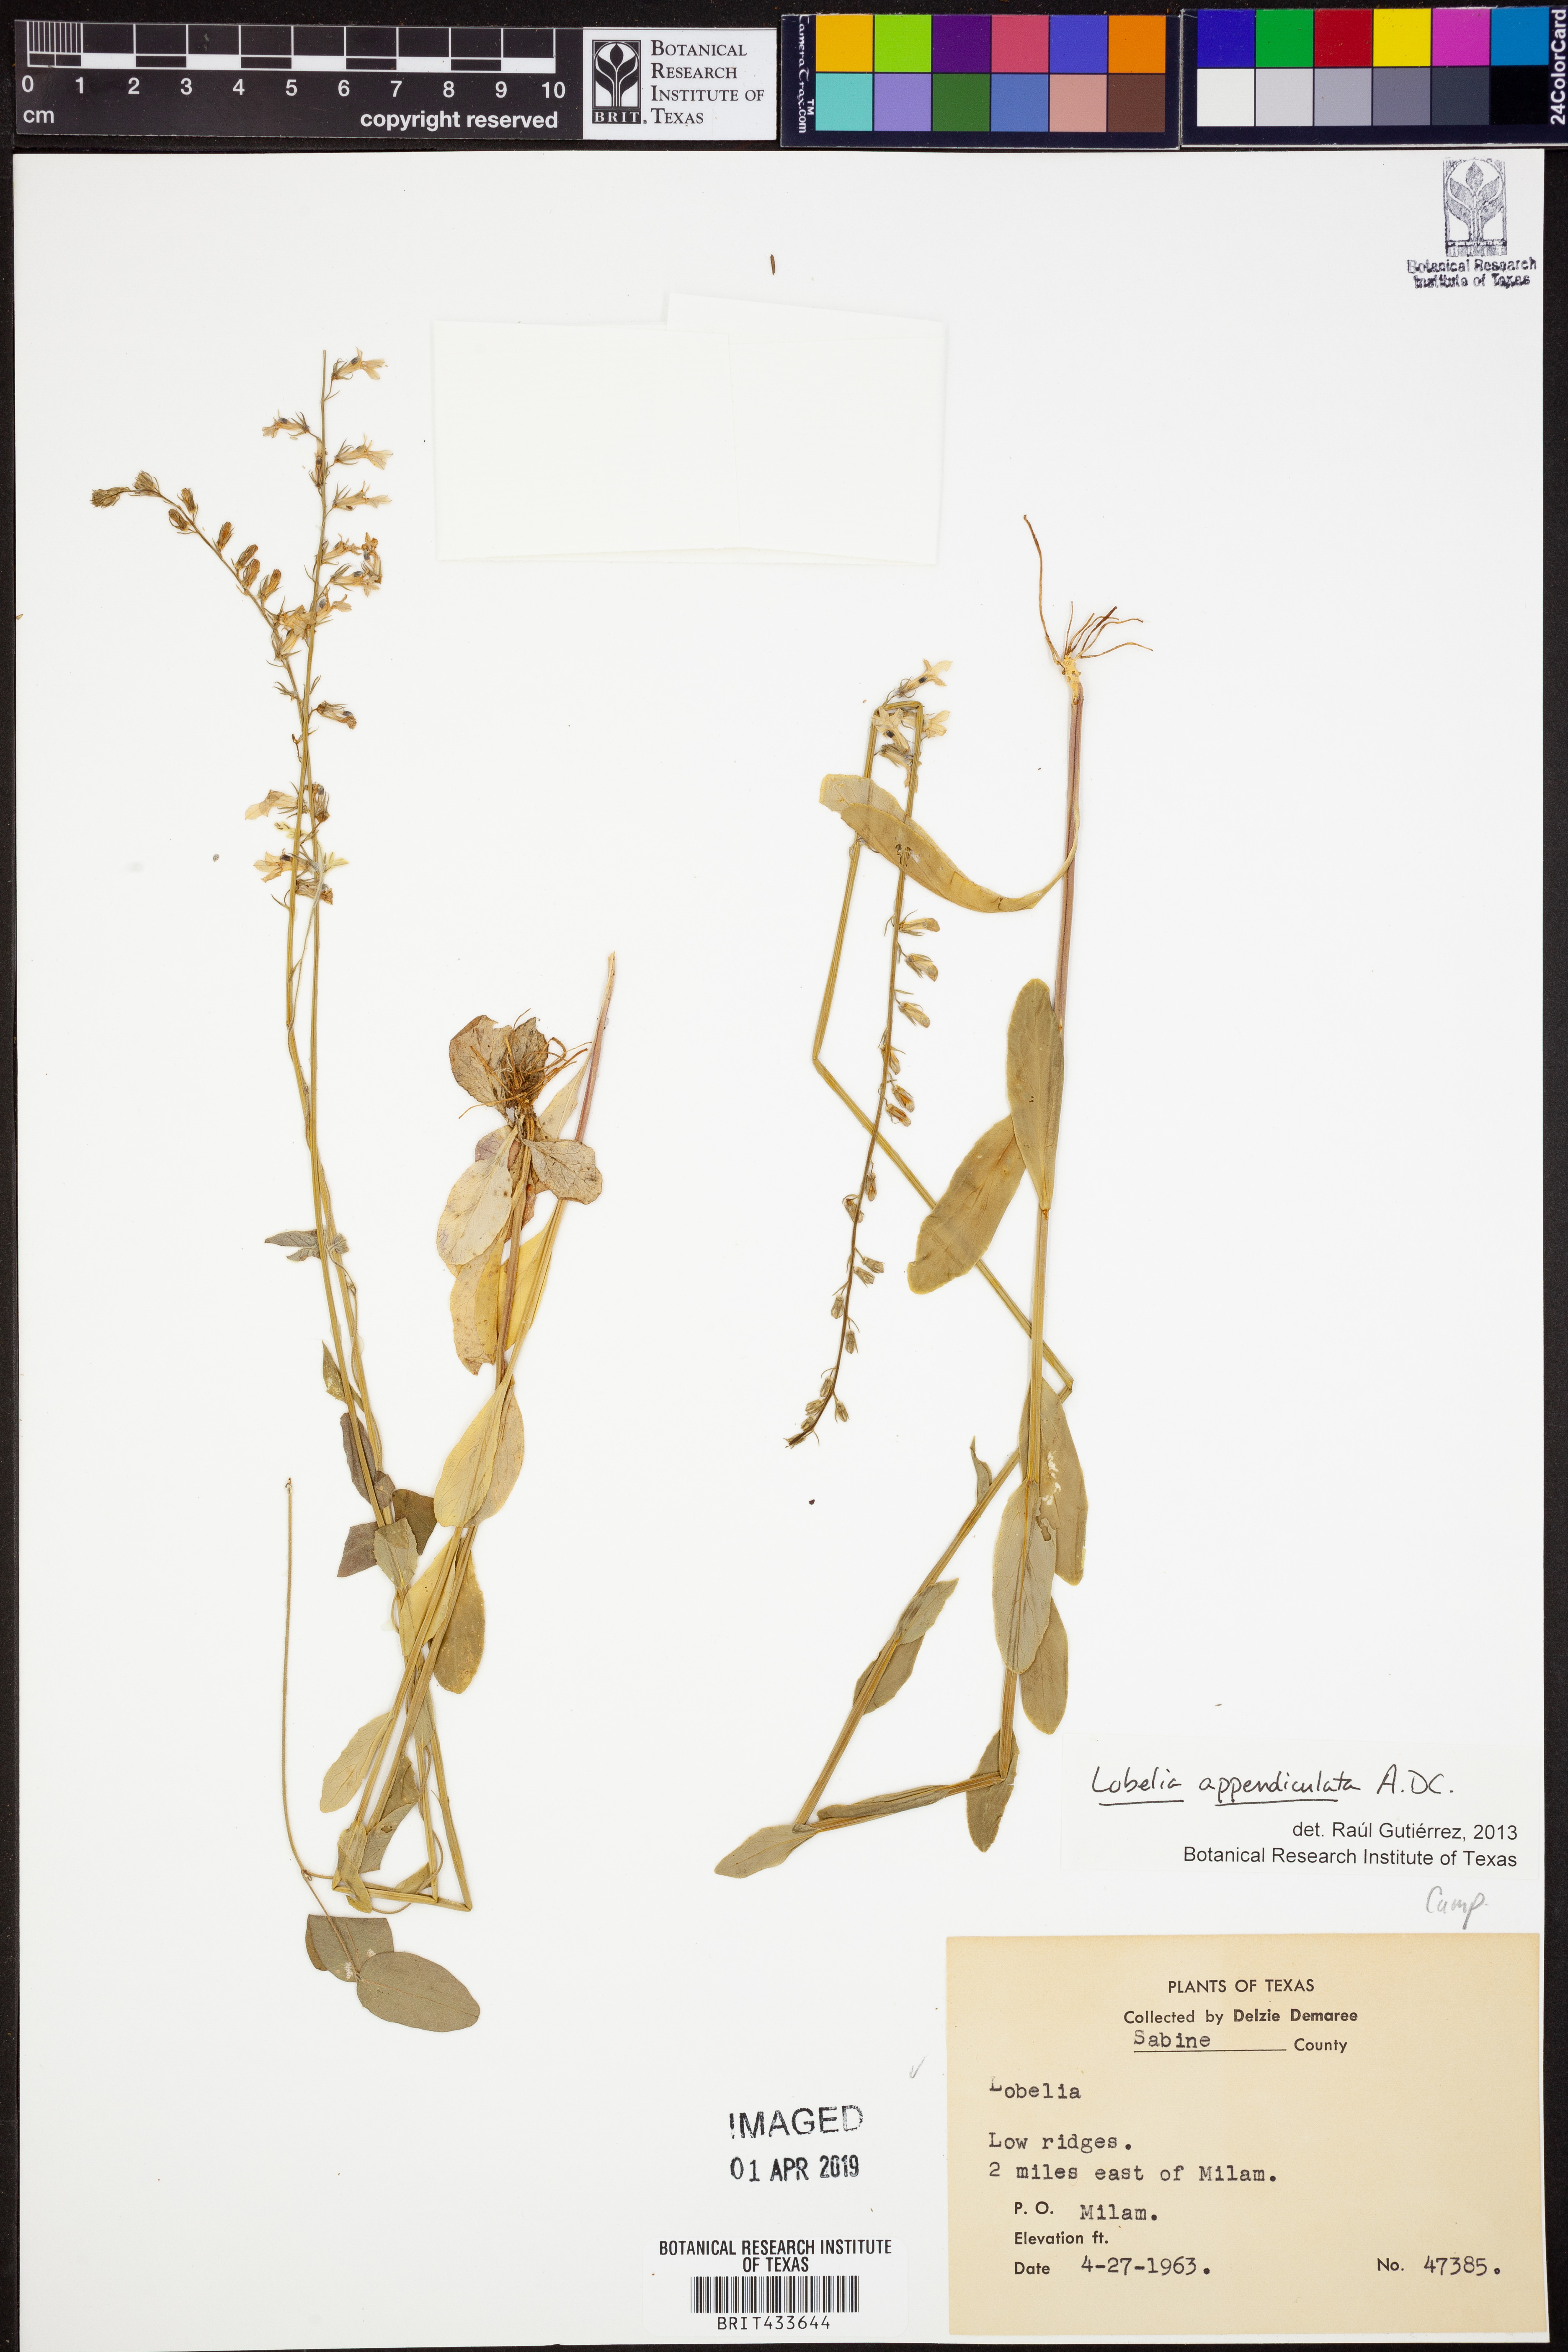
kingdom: Plantae
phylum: Tracheophyta
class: Magnoliopsida
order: Asterales
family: Campanulaceae
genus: Lobelia
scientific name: Lobelia appendiculata
